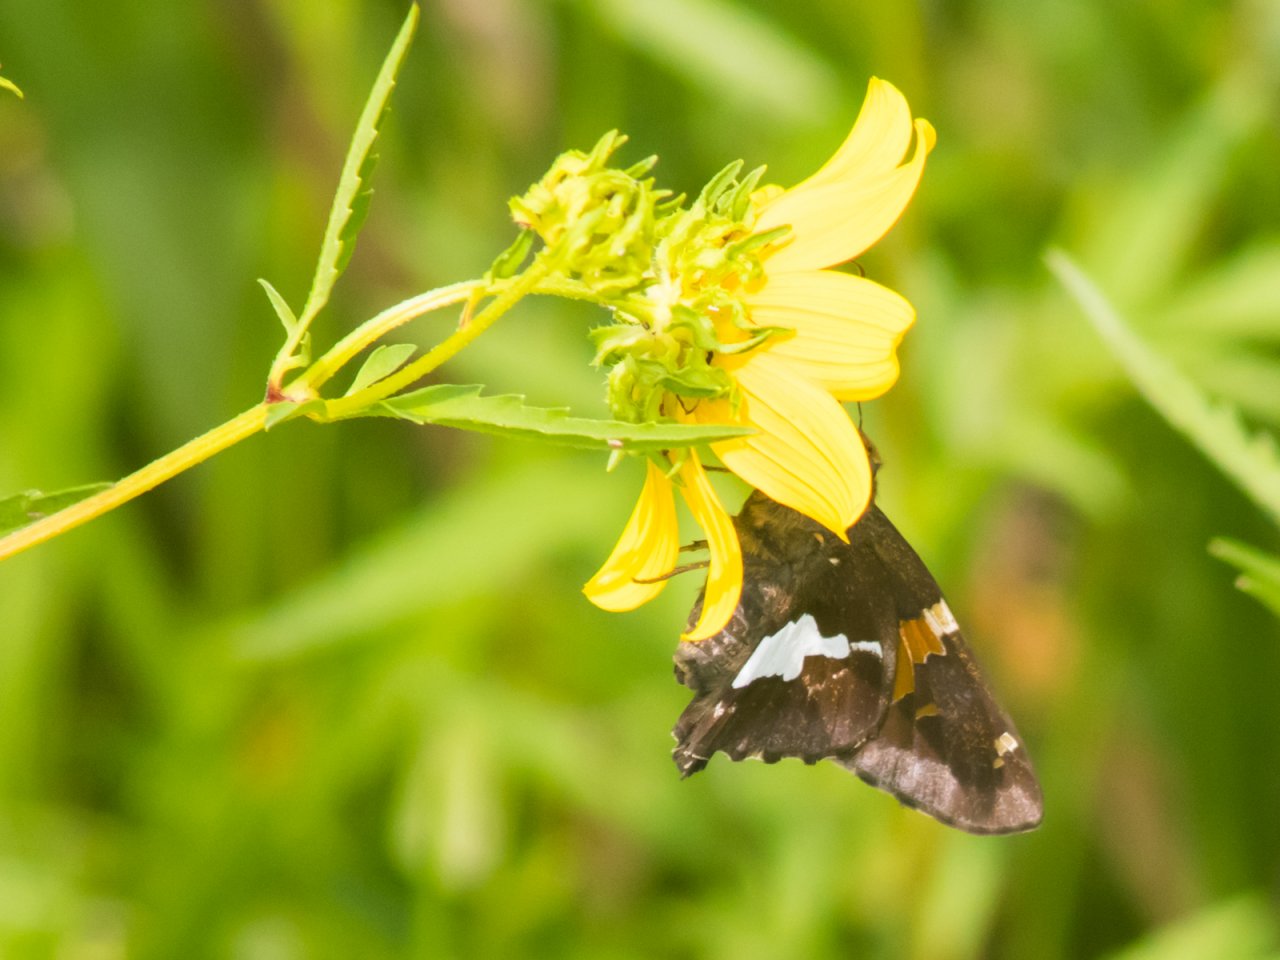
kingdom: Animalia
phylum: Arthropoda
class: Insecta
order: Lepidoptera
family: Hesperiidae
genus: Epargyreus
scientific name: Epargyreus clarus
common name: Silver-spotted Skipper
